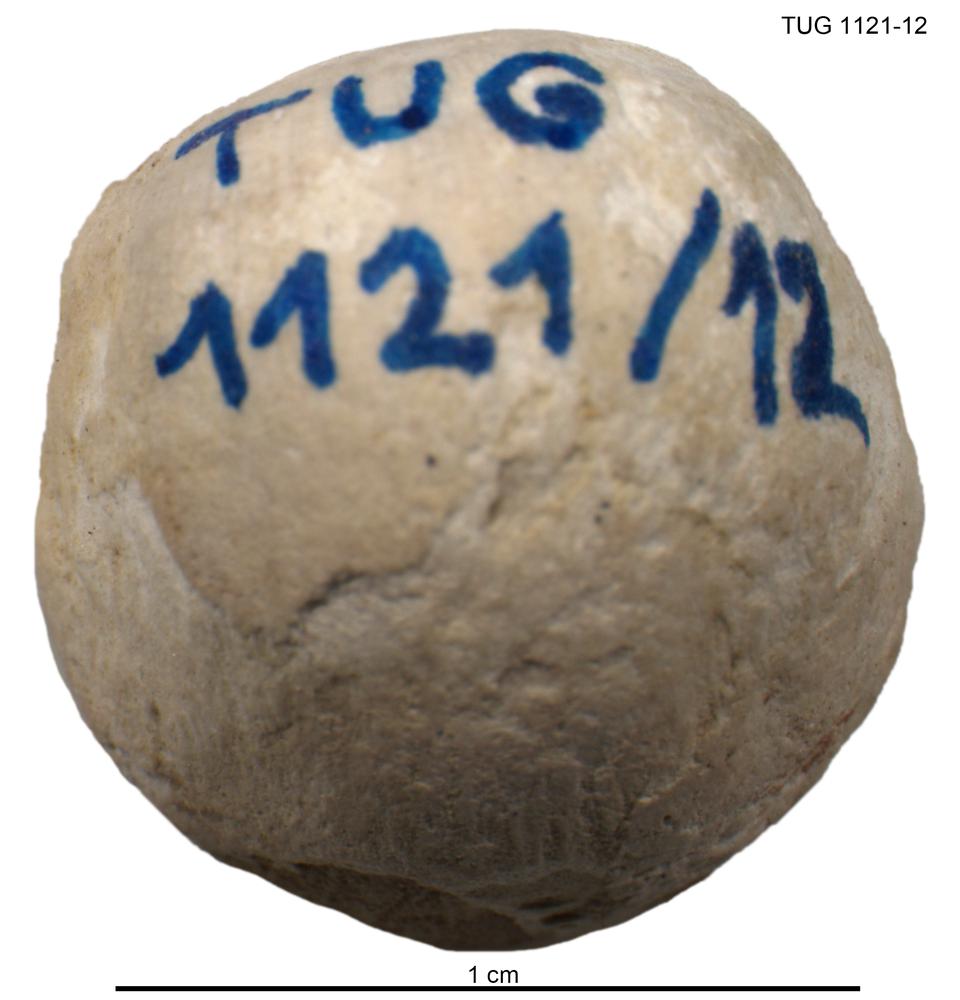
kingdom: Animalia
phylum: Brachiopoda
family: Strophomenidae
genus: Bekkerina
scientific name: Bekkerina Rafinesquina dorsata
